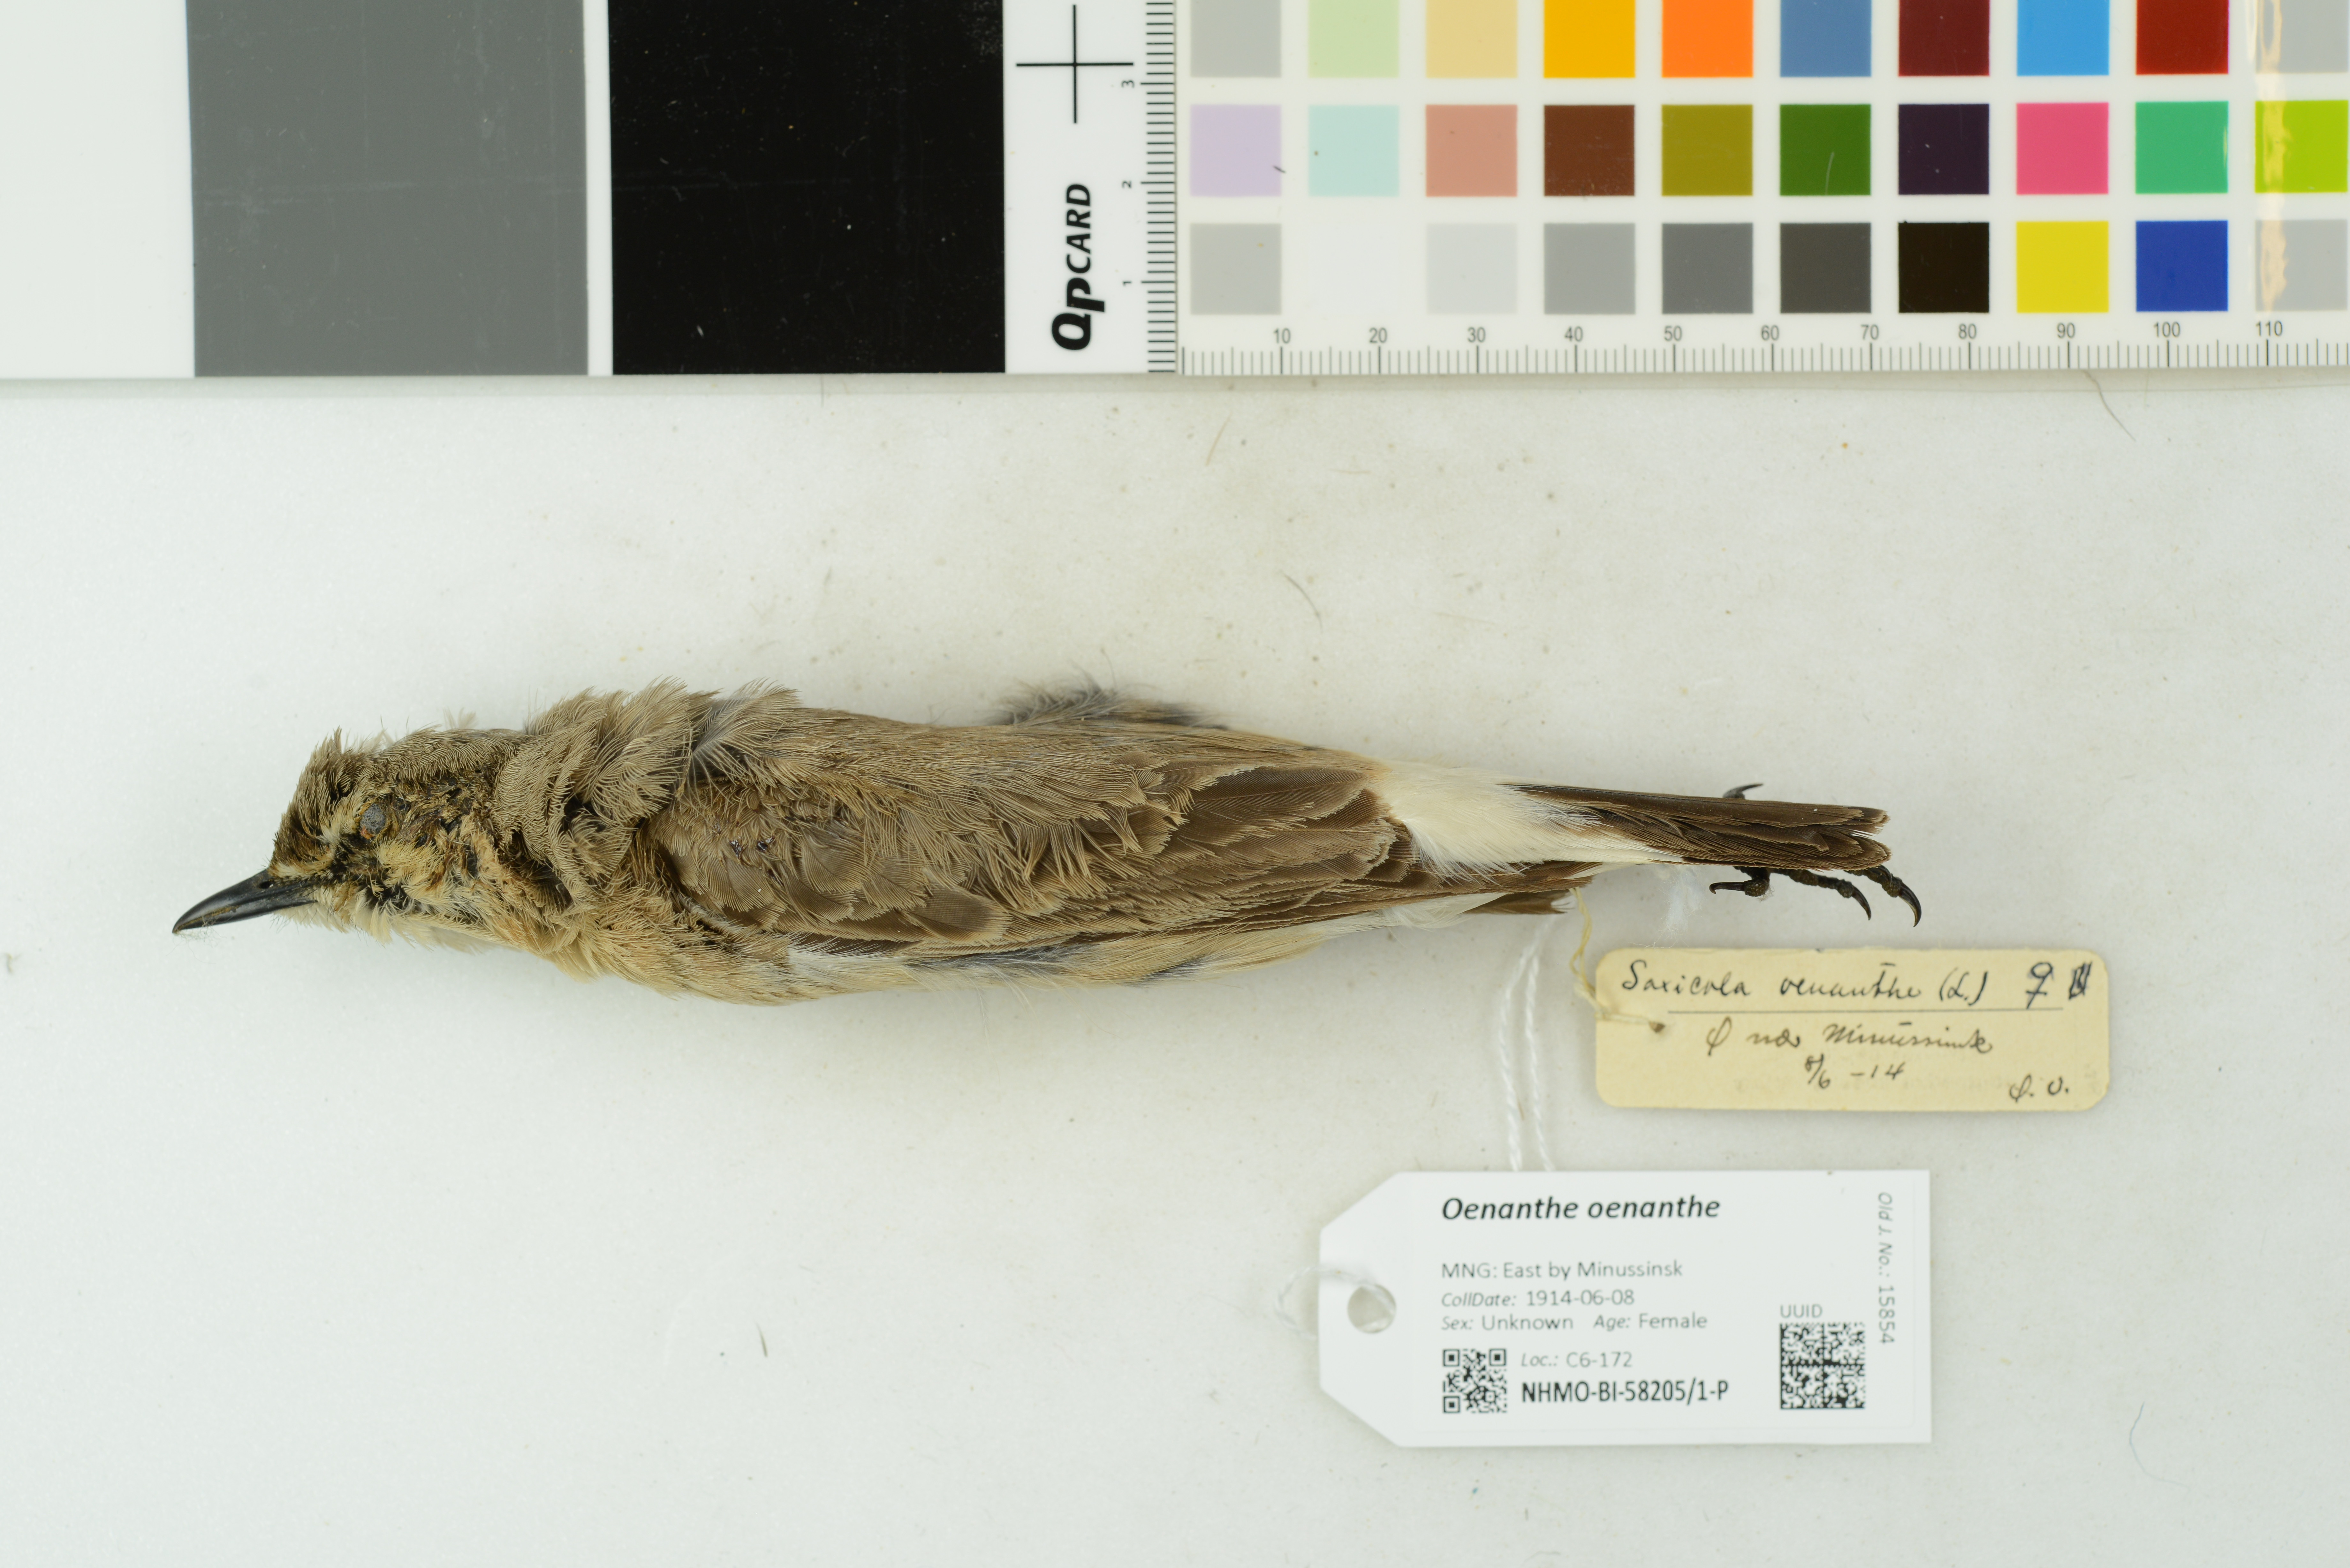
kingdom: Animalia
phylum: Chordata
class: Aves
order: Passeriformes
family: Muscicapidae
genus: Oenanthe
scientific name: Oenanthe oenanthe
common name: Northern wheatear
